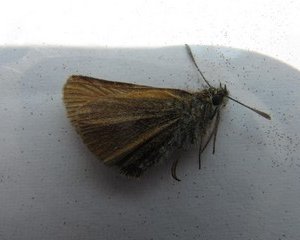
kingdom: Animalia
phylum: Arthropoda
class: Insecta
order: Lepidoptera
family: Hesperiidae
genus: Thymelicus
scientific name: Thymelicus lineola
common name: European Skipper
